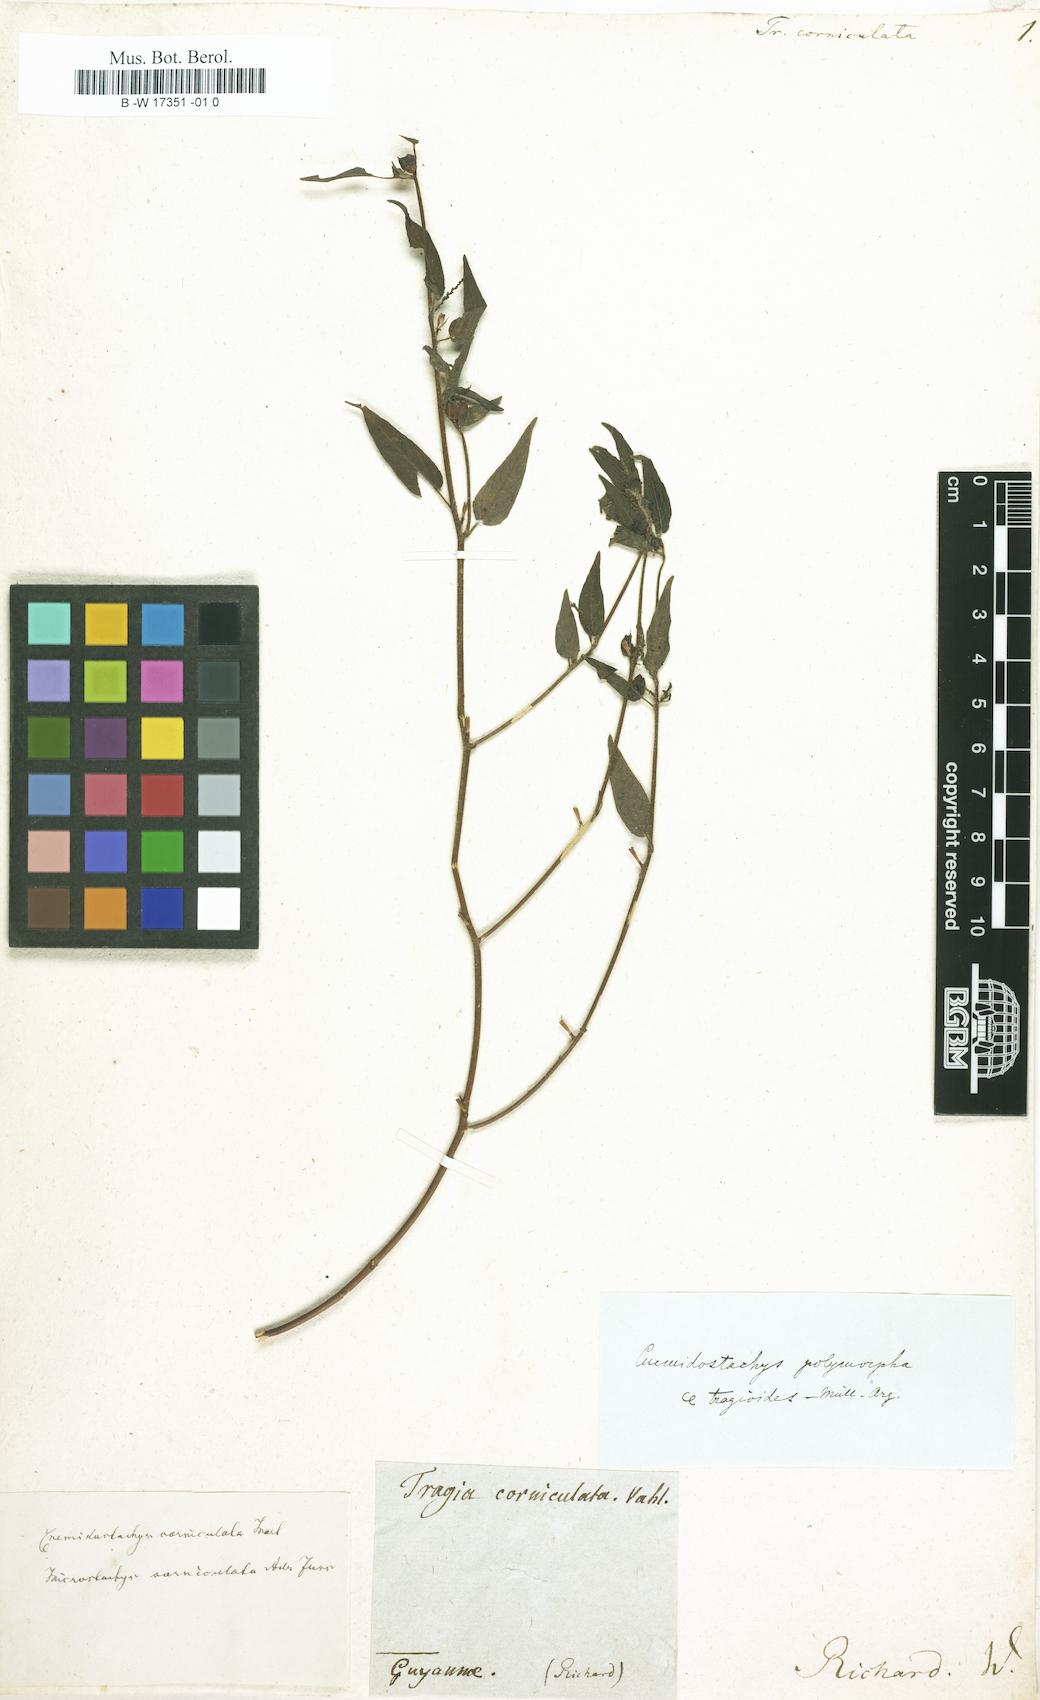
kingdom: Plantae
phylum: Tracheophyta
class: Magnoliopsida
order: Malpighiales
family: Euphorbiaceae
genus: Microstachys
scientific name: Microstachys corniculata
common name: Hato tejas
